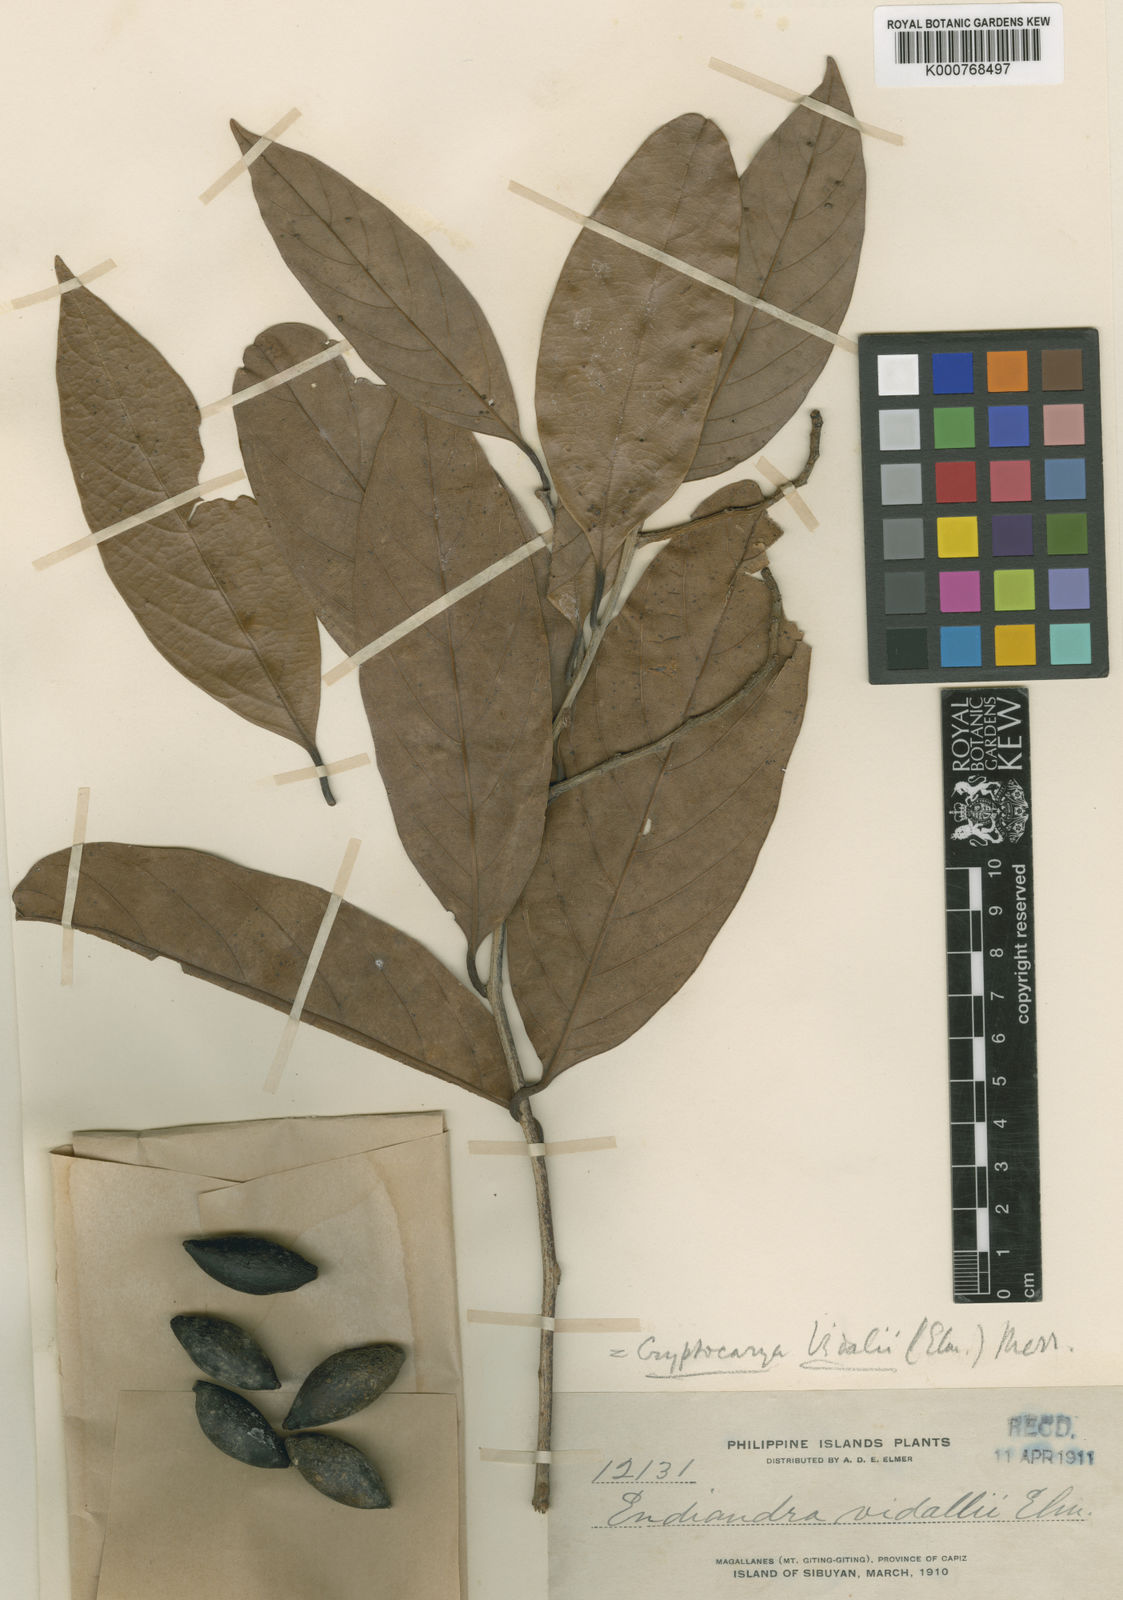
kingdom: Plantae
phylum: Tracheophyta
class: Magnoliopsida
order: Laurales
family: Lauraceae
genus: Cryptocarya
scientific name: Cryptocarya vidalii
